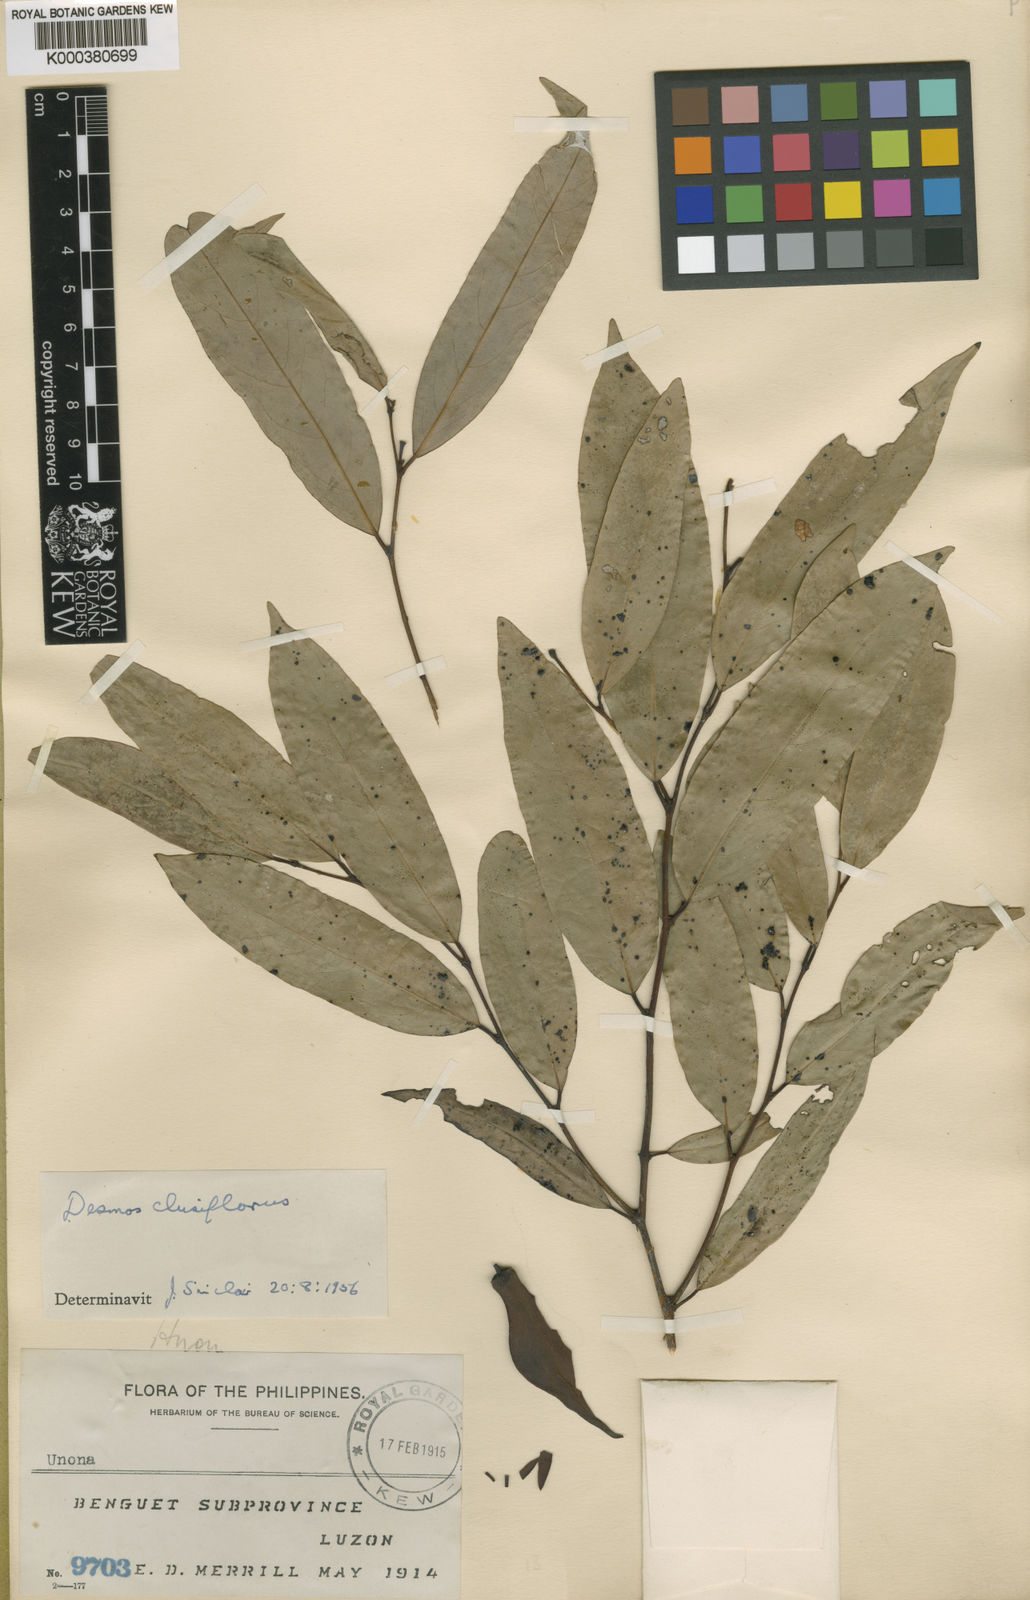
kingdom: Plantae
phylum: Tracheophyta
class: Magnoliopsida
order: Magnoliales
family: Annonaceae
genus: Dasymaschalon
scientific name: Dasymaschalon clusiflorum
